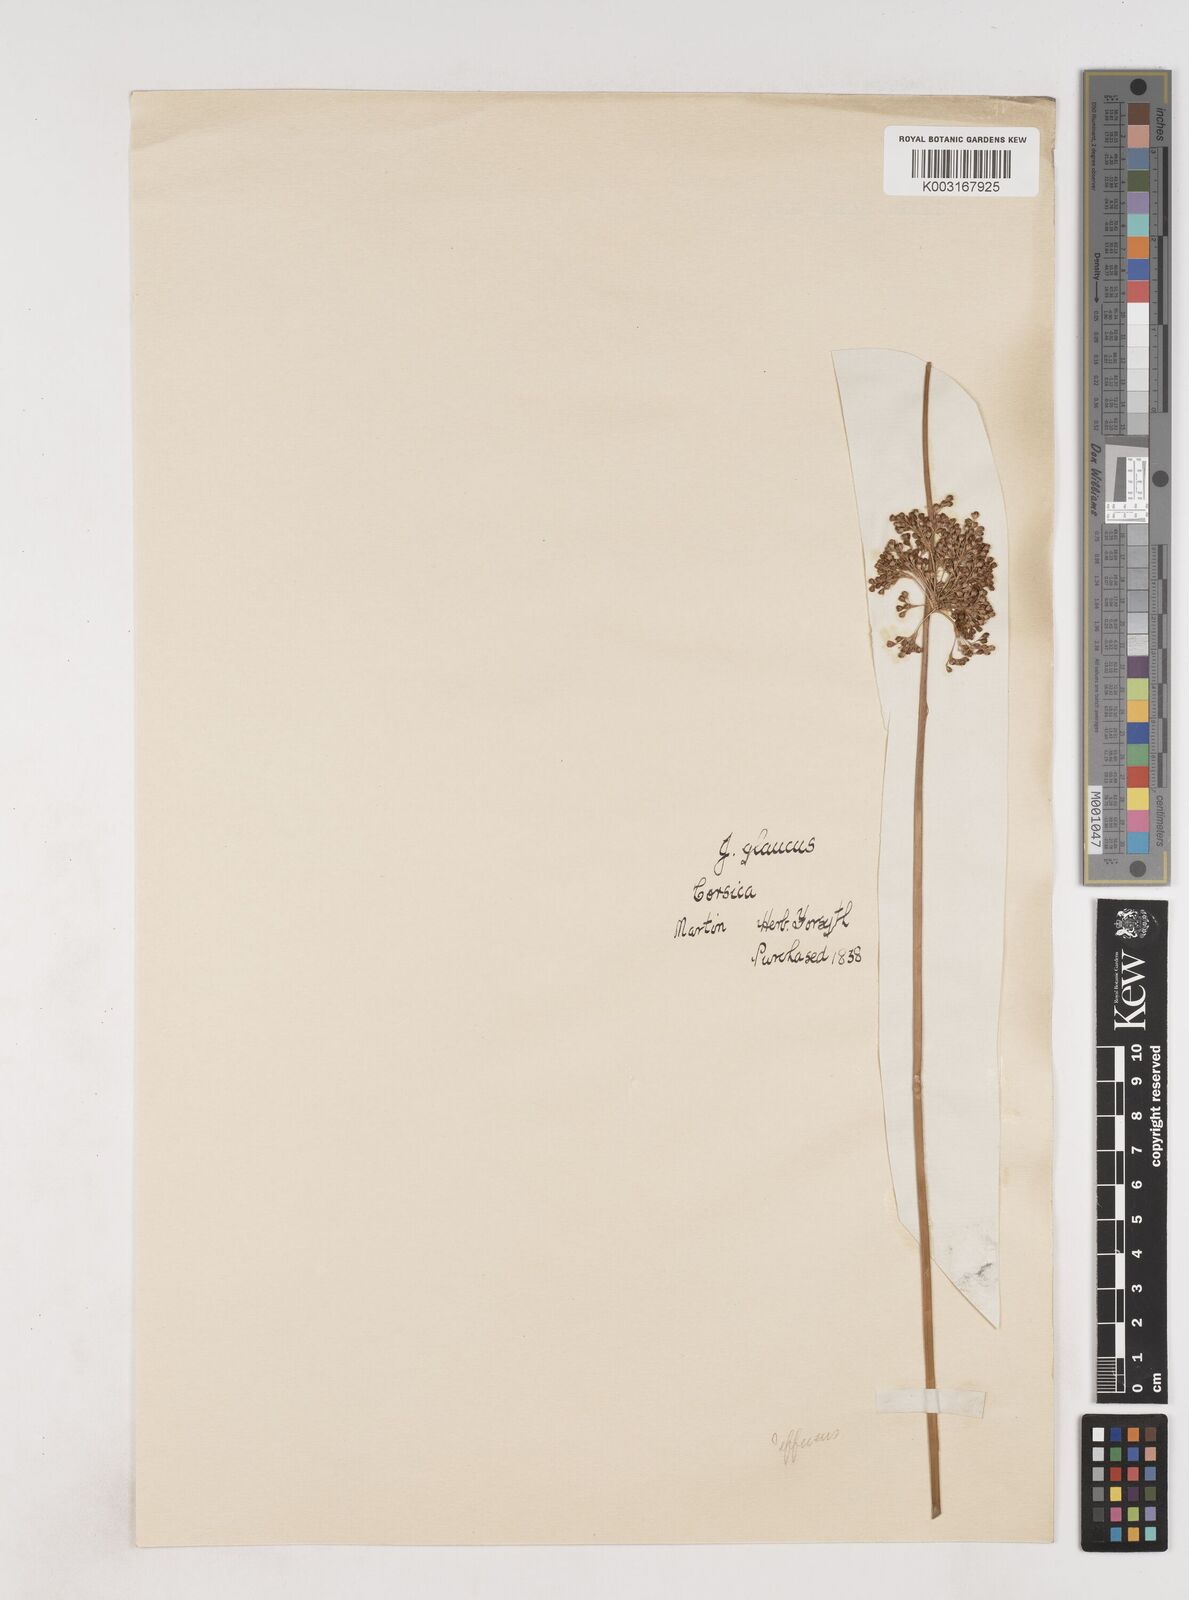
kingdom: Plantae
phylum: Tracheophyta
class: Liliopsida
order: Poales
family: Juncaceae
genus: Juncus
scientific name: Juncus effusus
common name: Soft rush
